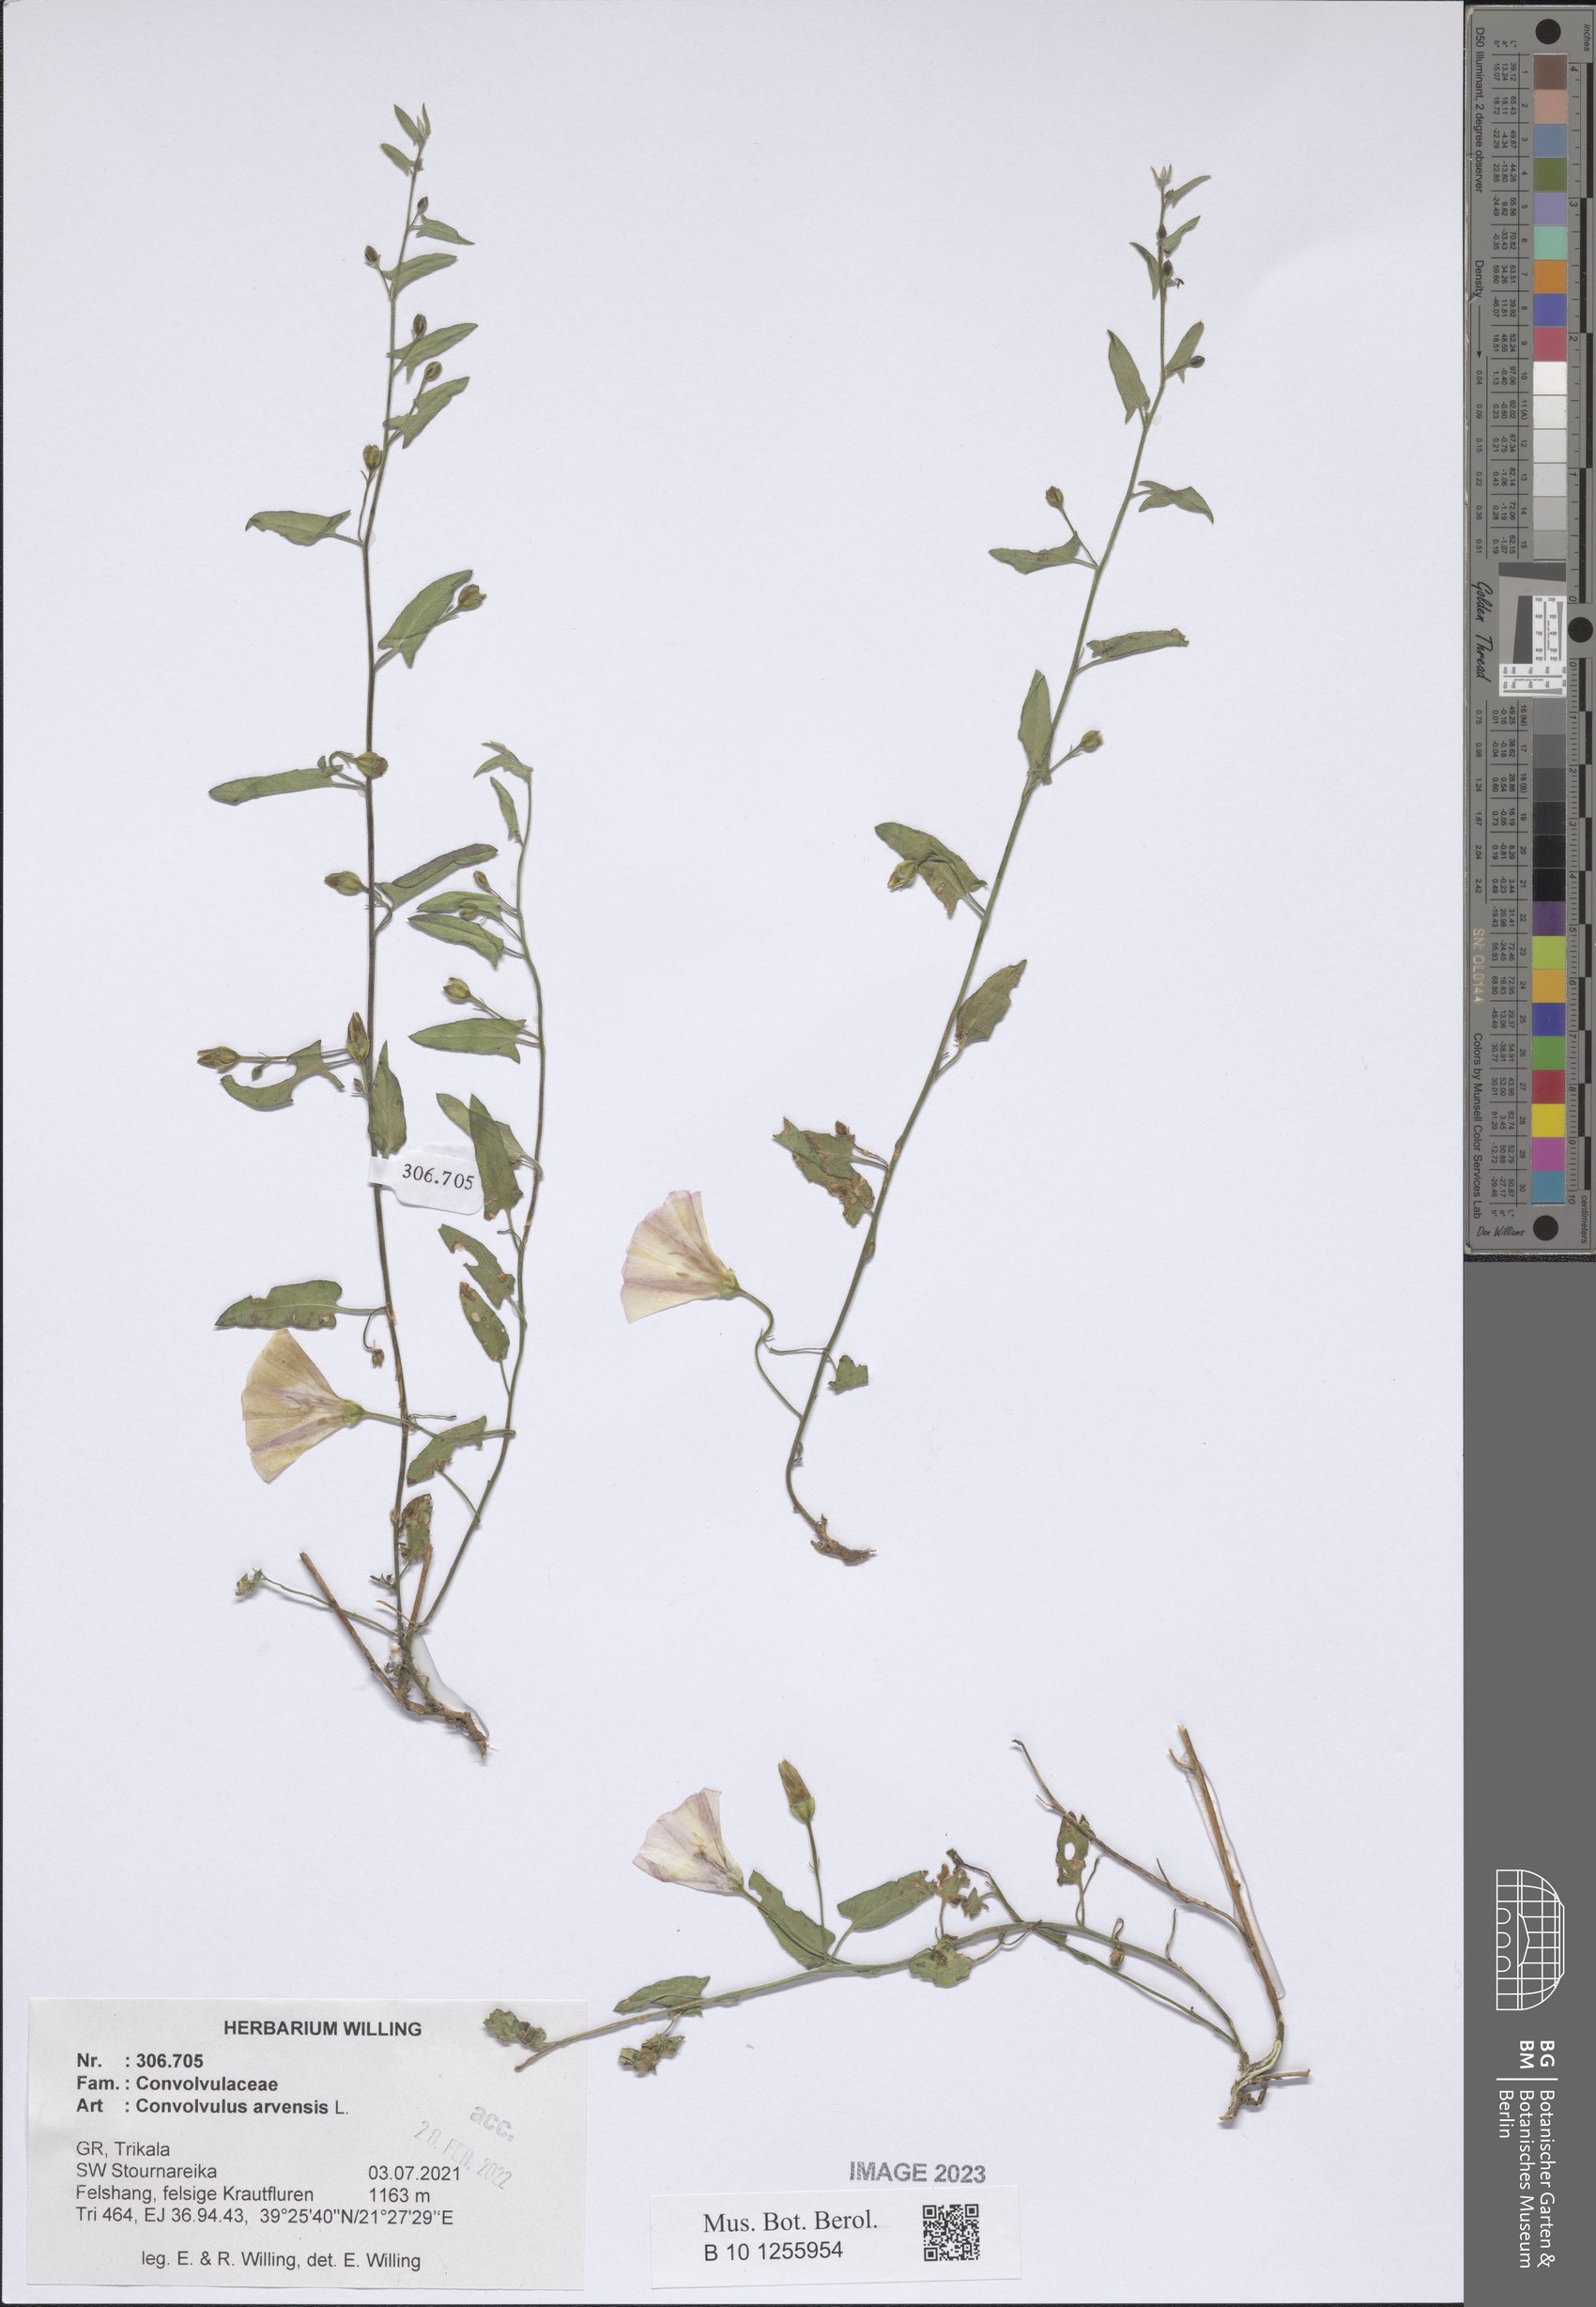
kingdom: Plantae
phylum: Tracheophyta
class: Magnoliopsida
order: Solanales
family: Convolvulaceae
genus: Convolvulus
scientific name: Convolvulus arvensis
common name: Field bindweed
